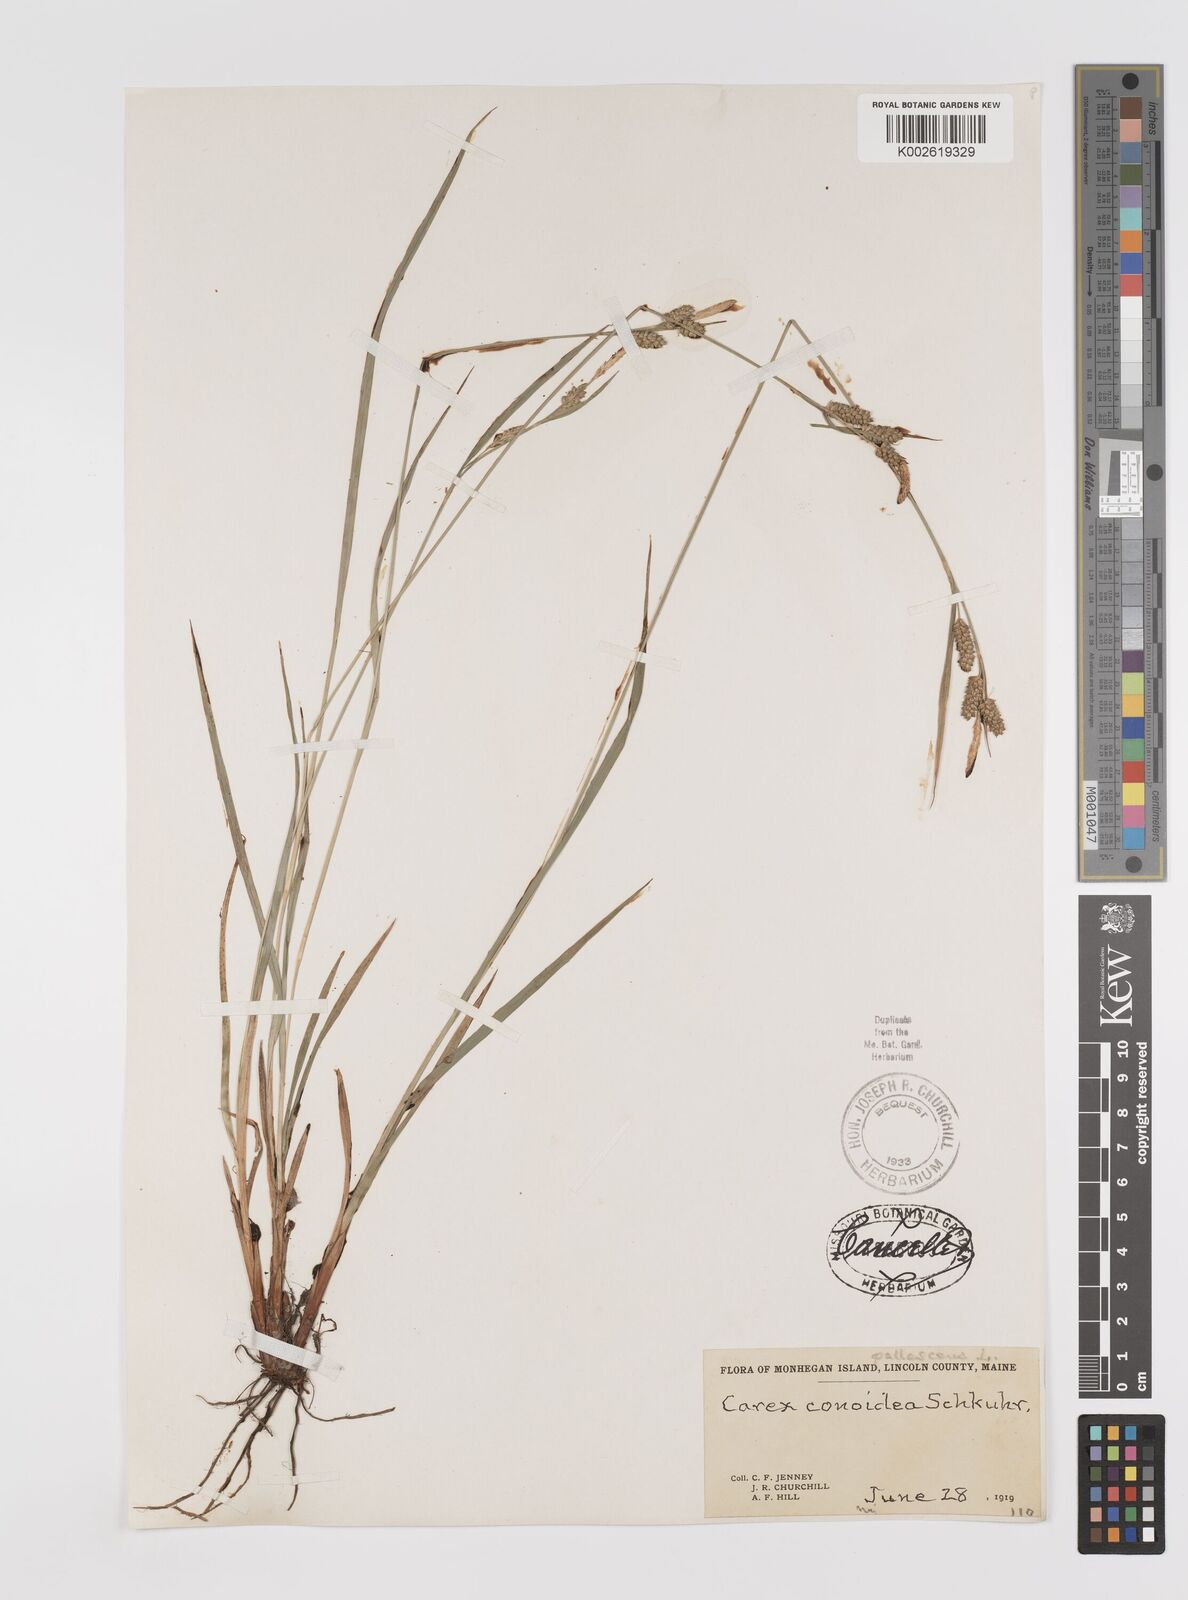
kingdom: Plantae
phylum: Tracheophyta
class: Liliopsida
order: Poales
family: Cyperaceae
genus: Carex
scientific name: Carex conoidea
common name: Cone shaped sedge
